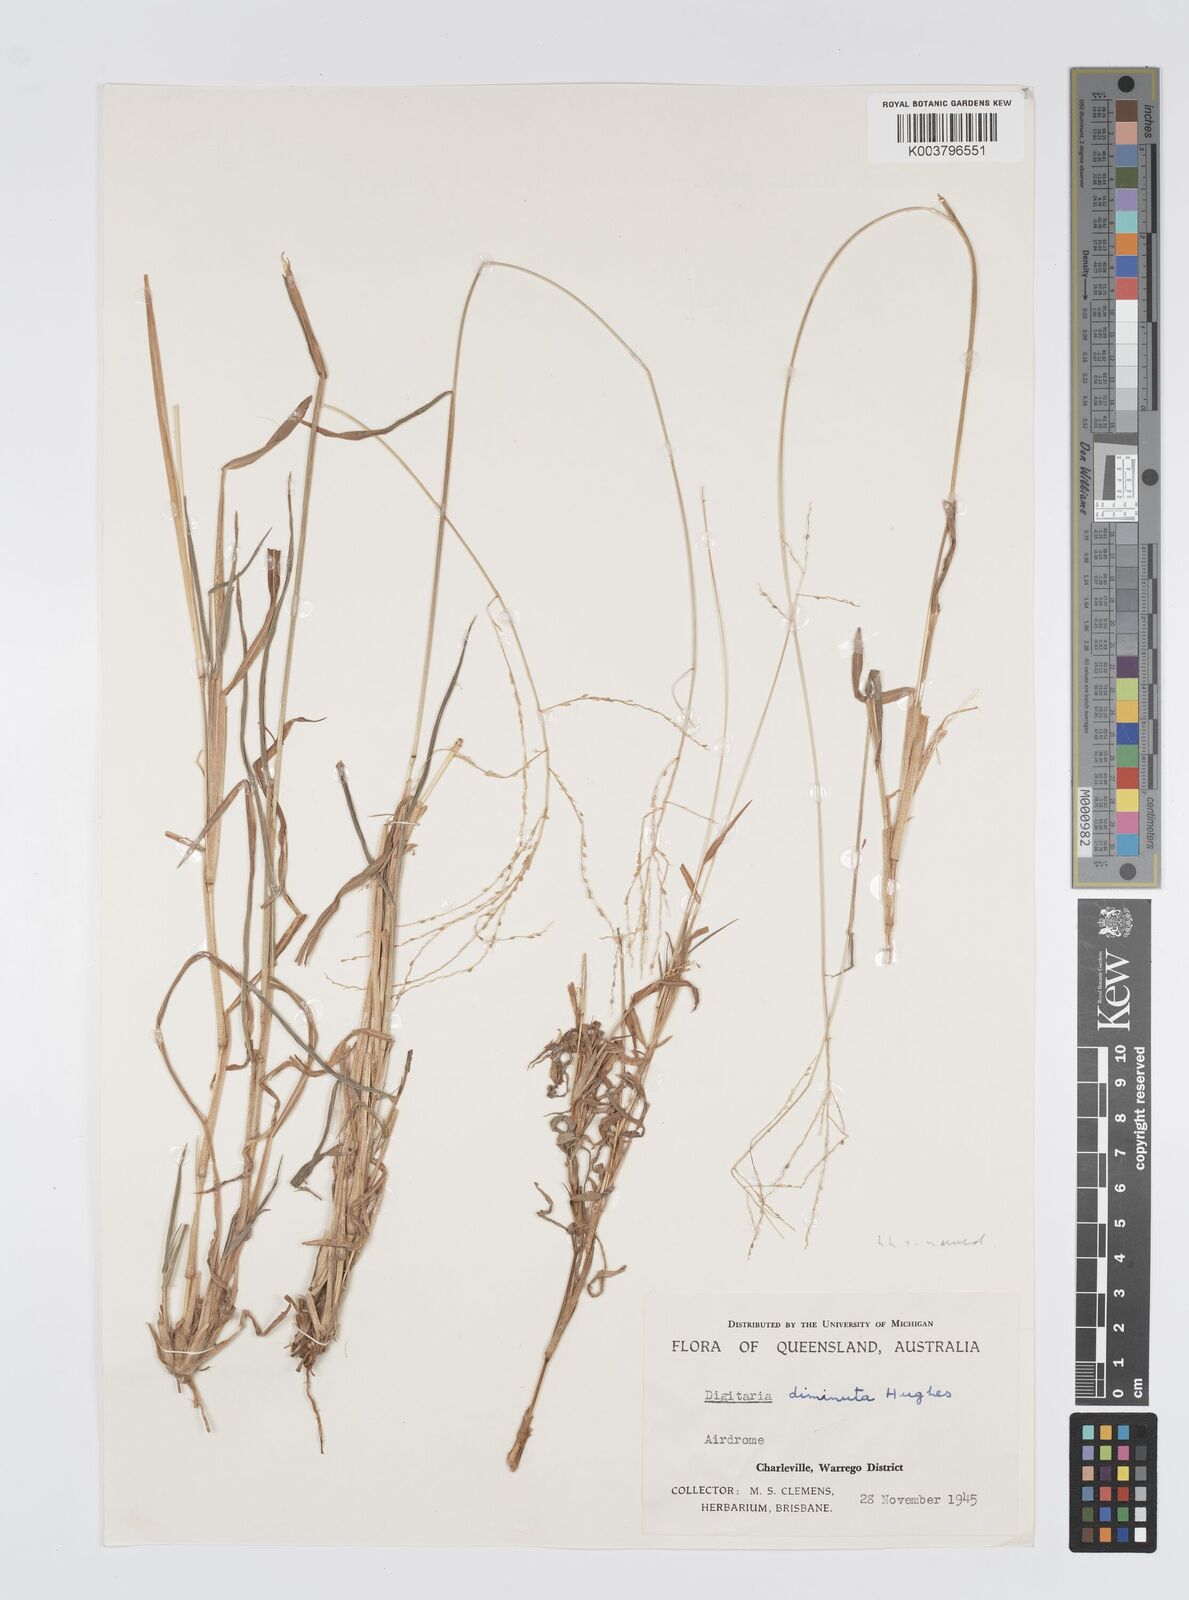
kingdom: Plantae
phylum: Tracheophyta
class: Liliopsida
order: Poales
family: Poaceae
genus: Digitaria
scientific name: Digitaria breviglumis
